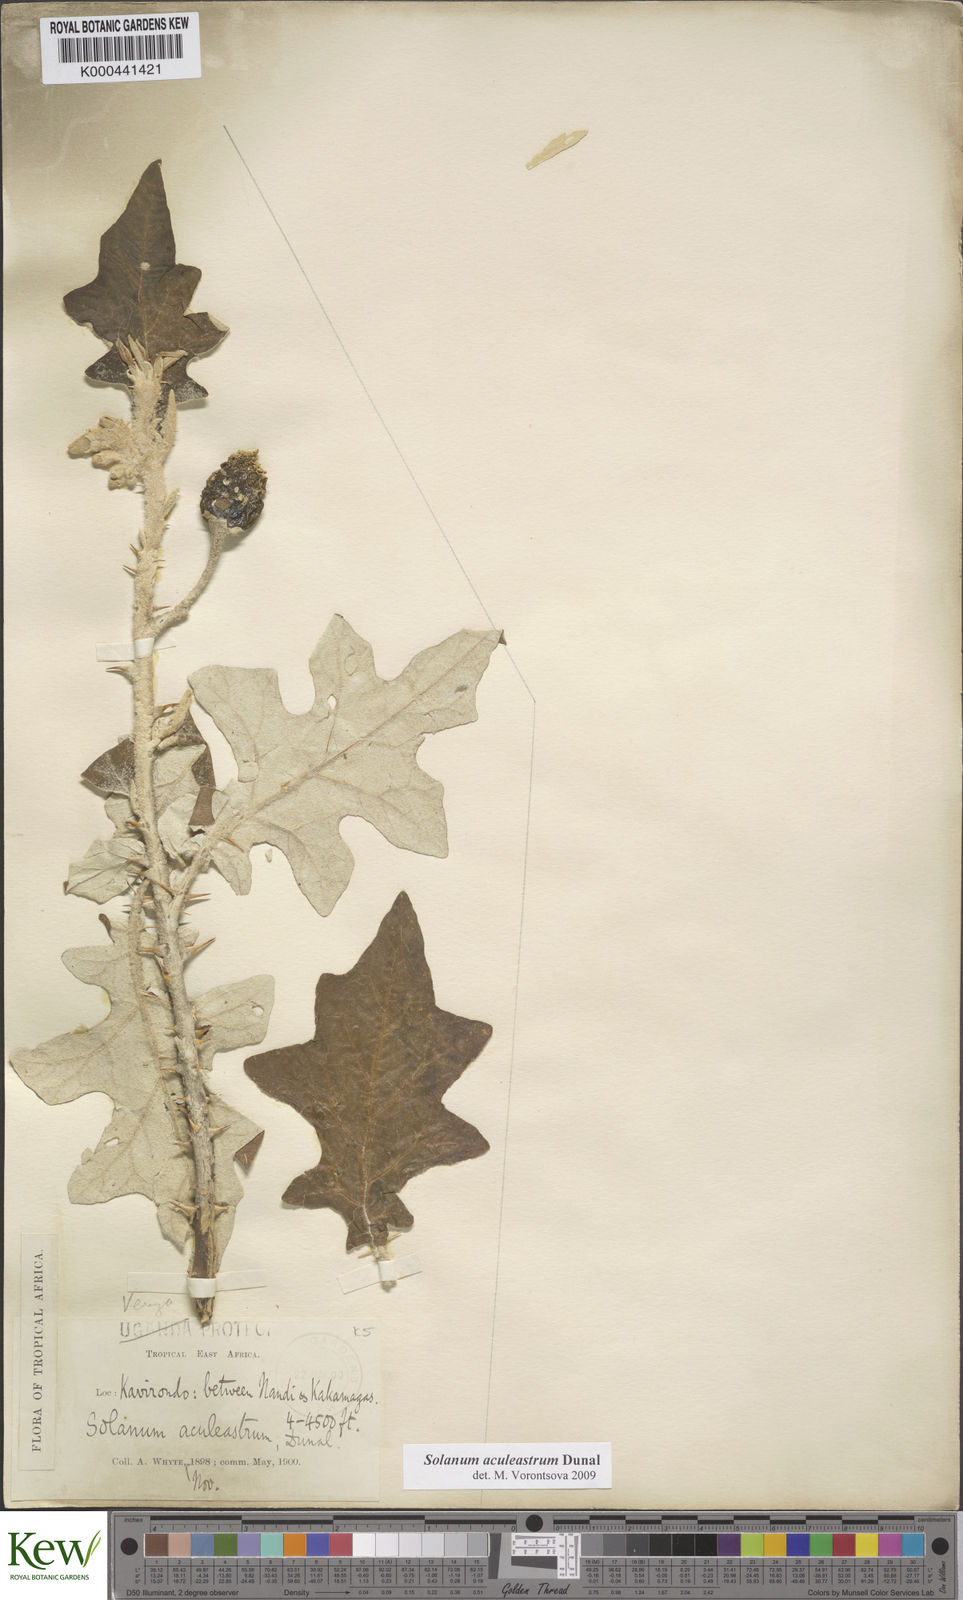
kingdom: Plantae
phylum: Tracheophyta
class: Magnoliopsida
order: Solanales
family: Solanaceae
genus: Solanum
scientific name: Solanum aculeastrum
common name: Goat bitter-apple
